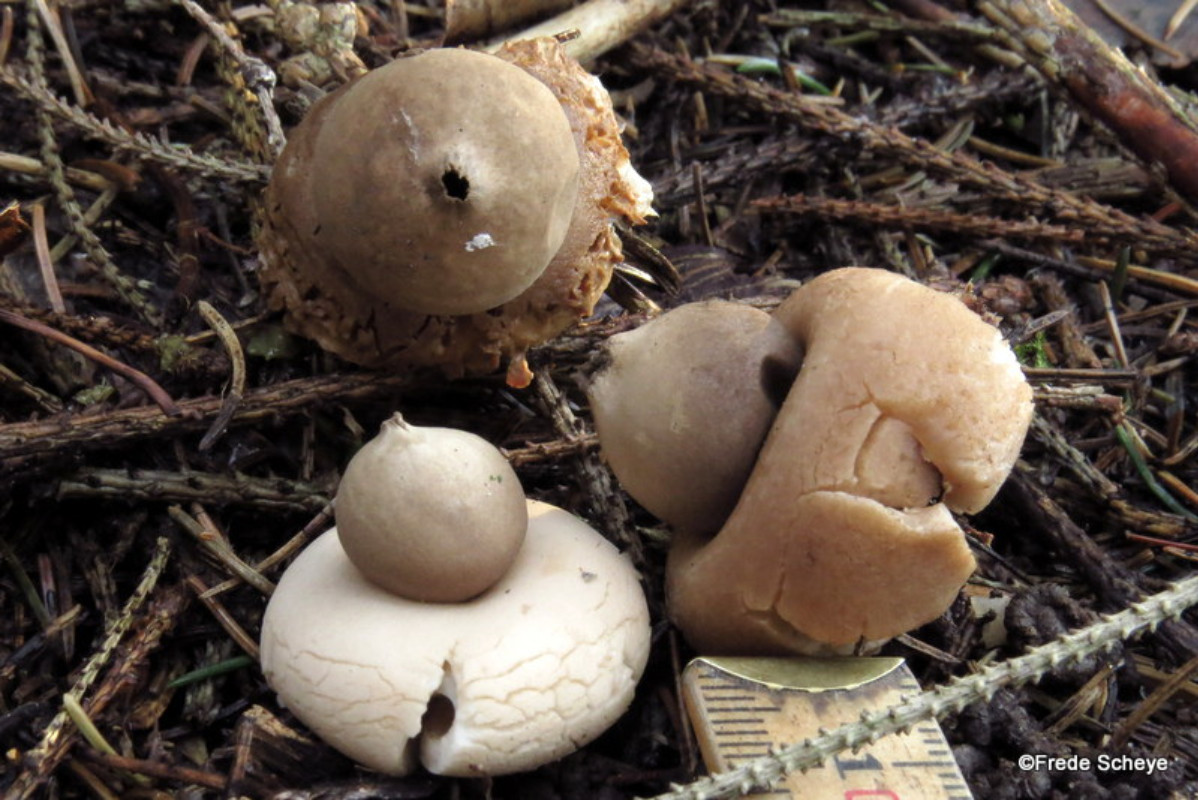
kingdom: Fungi
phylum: Basidiomycota
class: Agaricomycetes
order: Geastrales
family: Geastraceae
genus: Geastrum
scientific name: Geastrum fimbriatum
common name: frynset stjernebold
